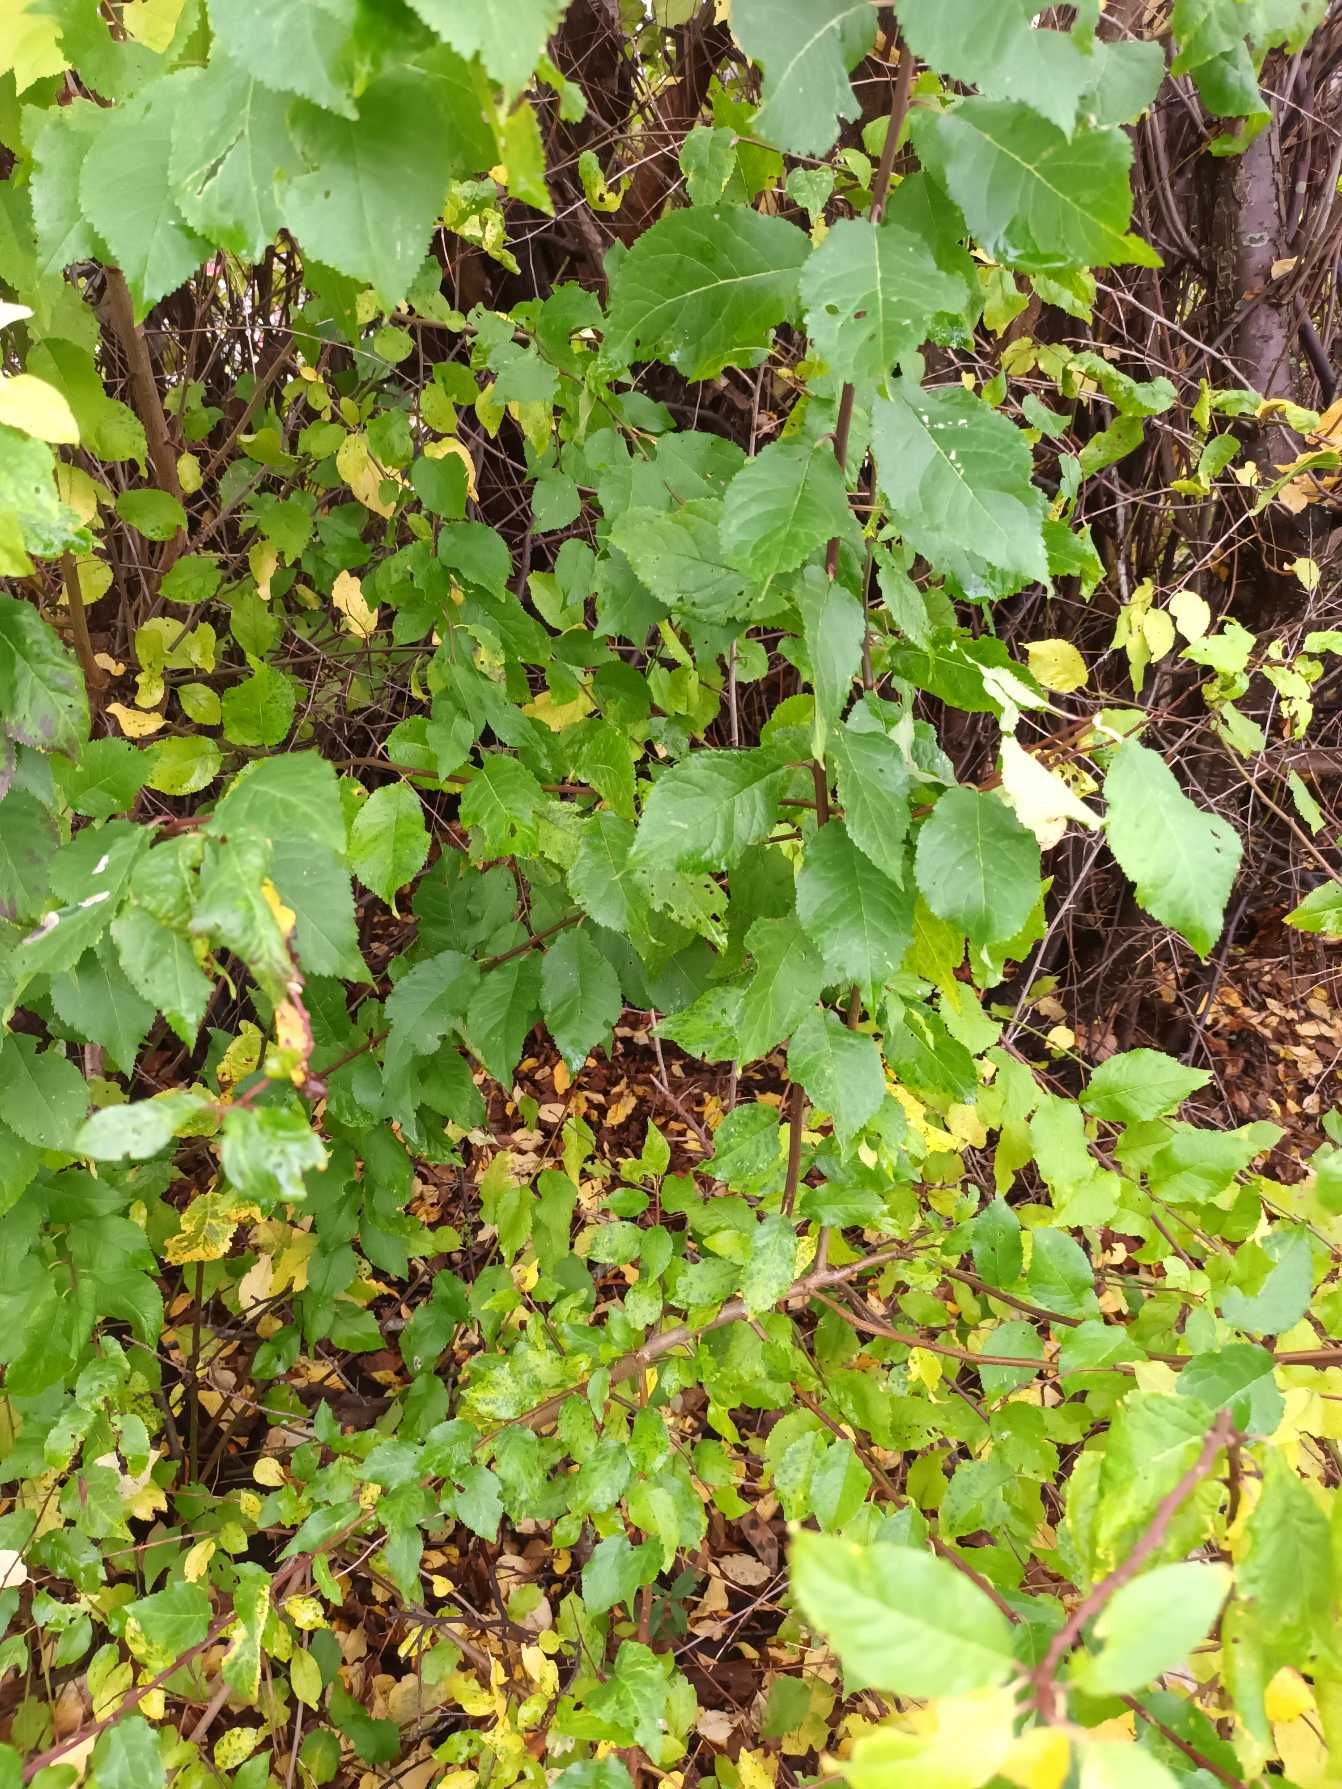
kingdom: Plantae
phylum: Tracheophyta
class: Magnoliopsida
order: Rosales
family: Rosaceae
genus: Prunus
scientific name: Prunus cerasifera
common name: Mirabel
